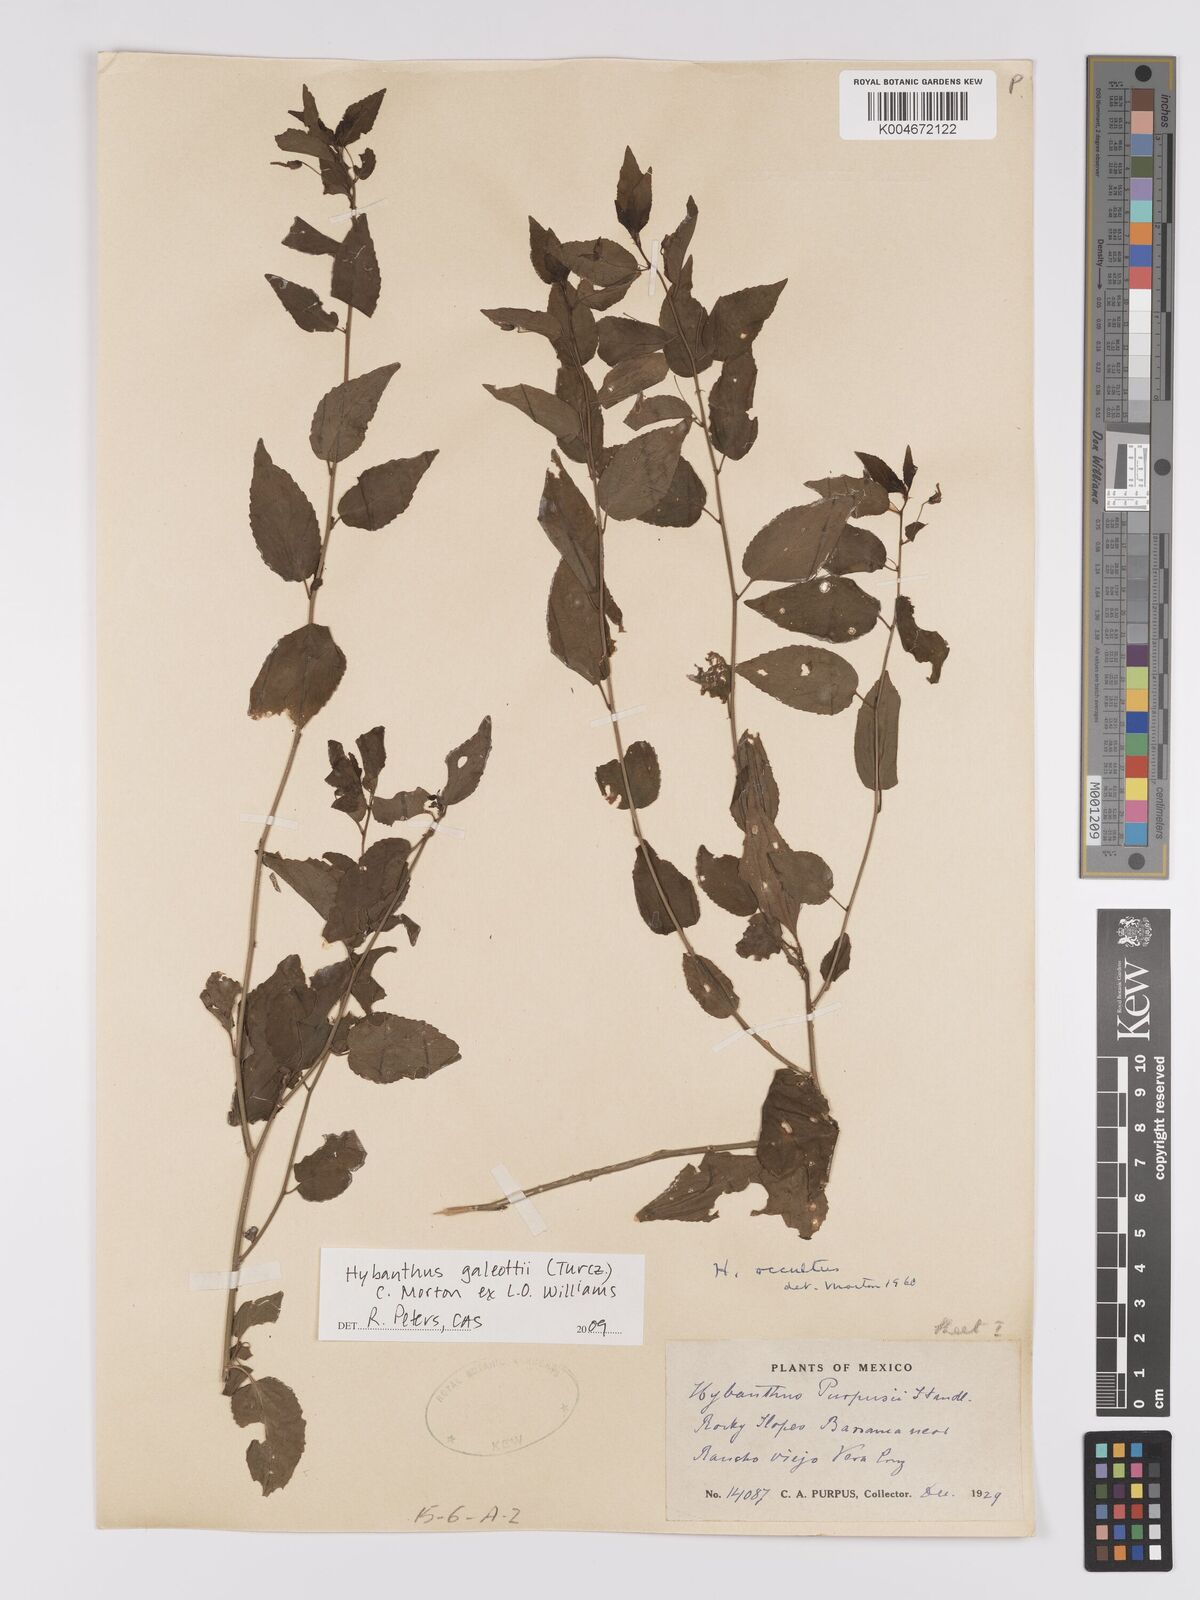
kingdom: Plantae
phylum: Tracheophyta
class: Magnoliopsida
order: Malpighiales
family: Violaceae
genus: Hybanthus
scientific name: Hybanthus galeottii
